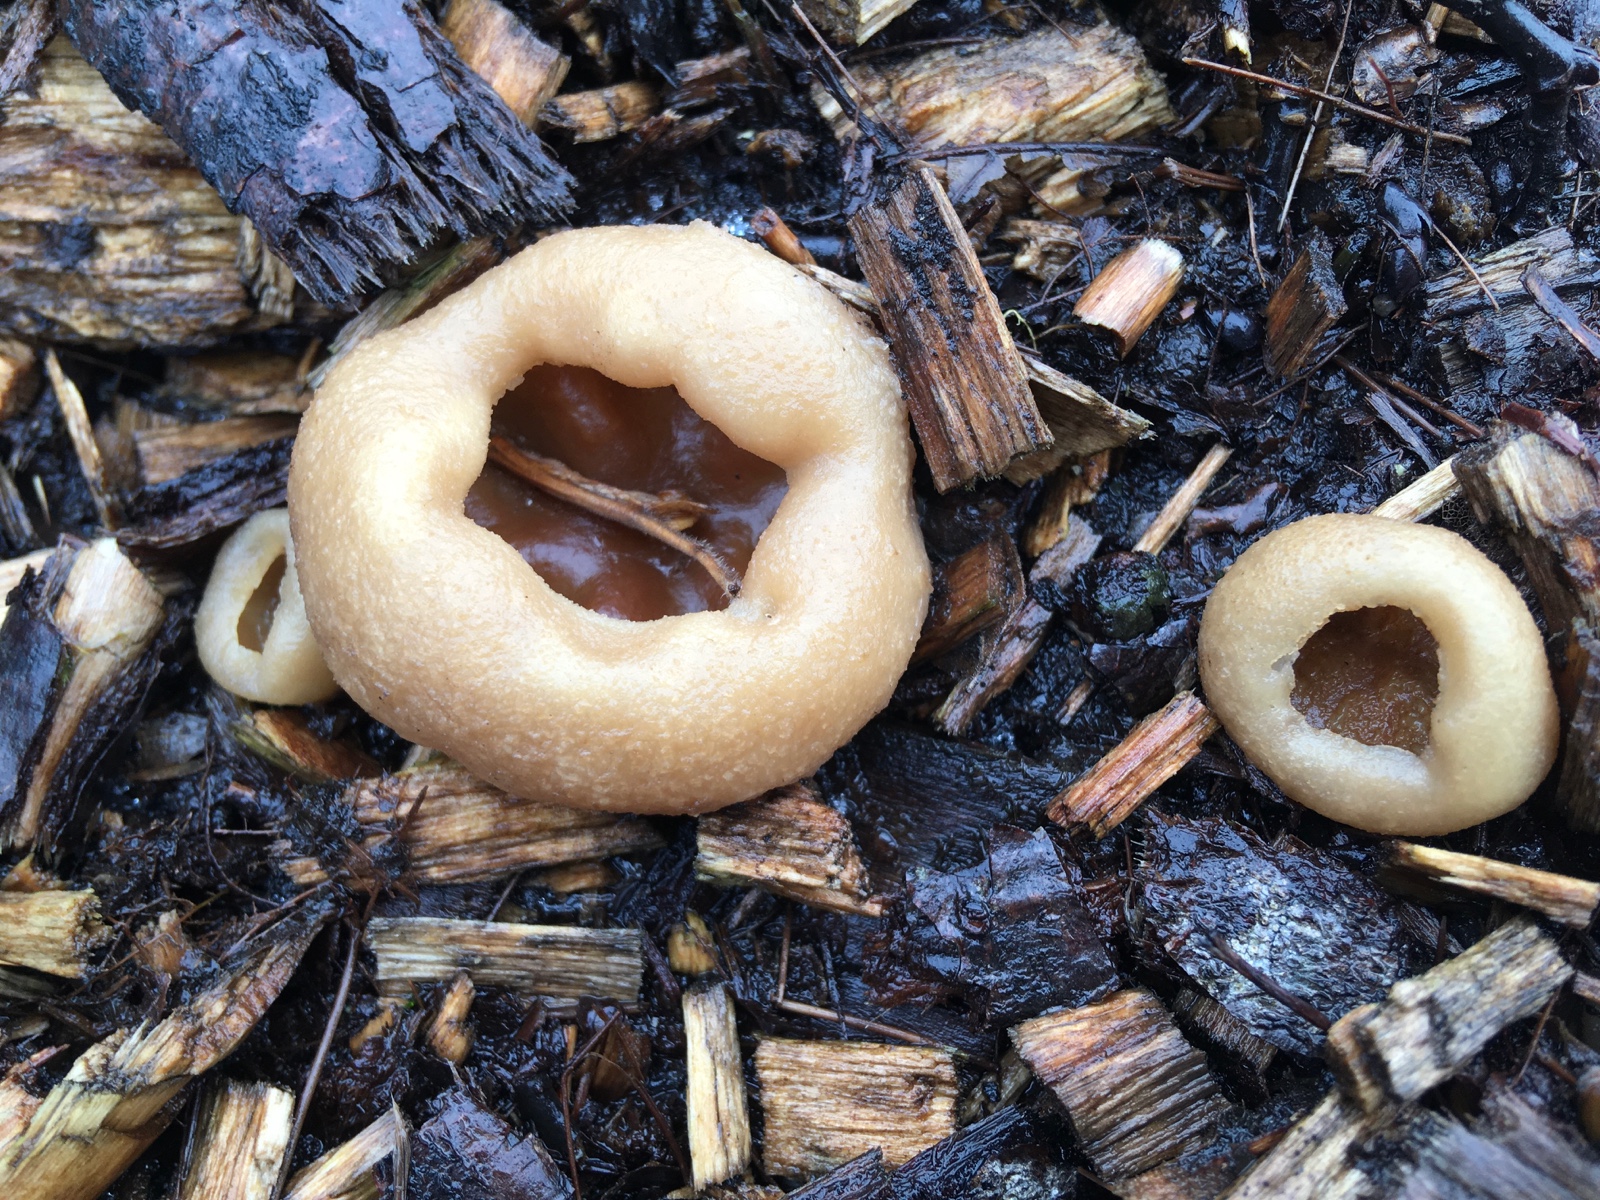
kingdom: Fungi
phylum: Ascomycota
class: Pezizomycetes
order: Pezizales
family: Pezizaceae
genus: Peziza
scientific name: Peziza vesiculosa
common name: blære-bægersvamp
